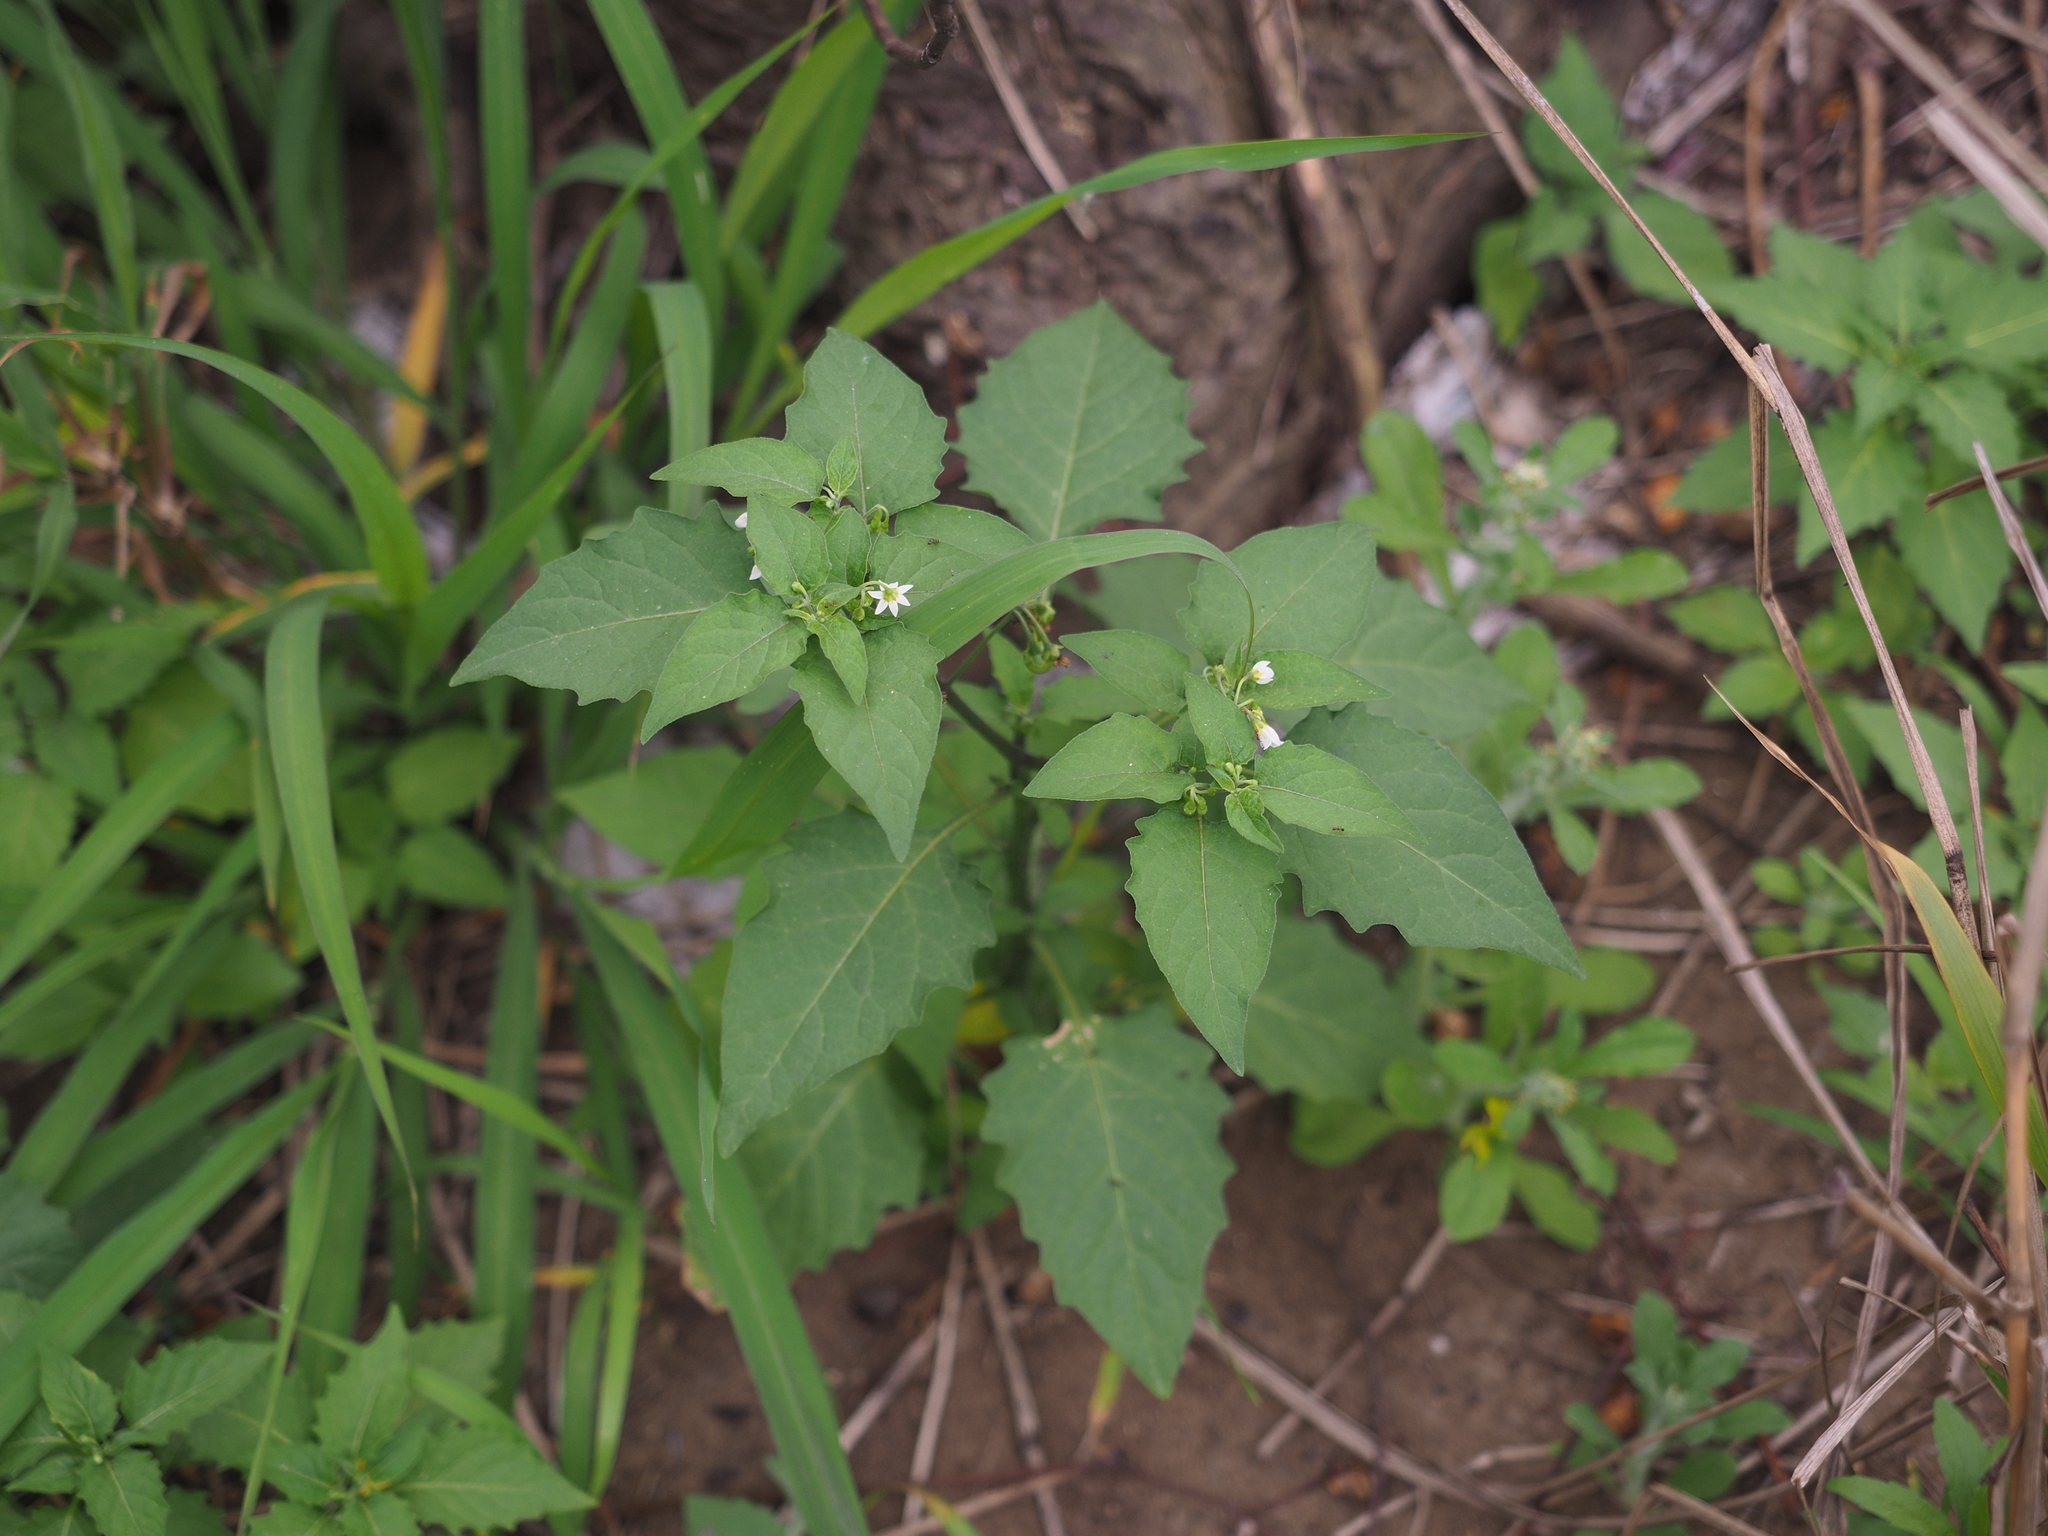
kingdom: Plantae
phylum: Tracheophyta
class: Magnoliopsida
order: Solanales
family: Solanaceae
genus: Solanum
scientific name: Solanum americanum
